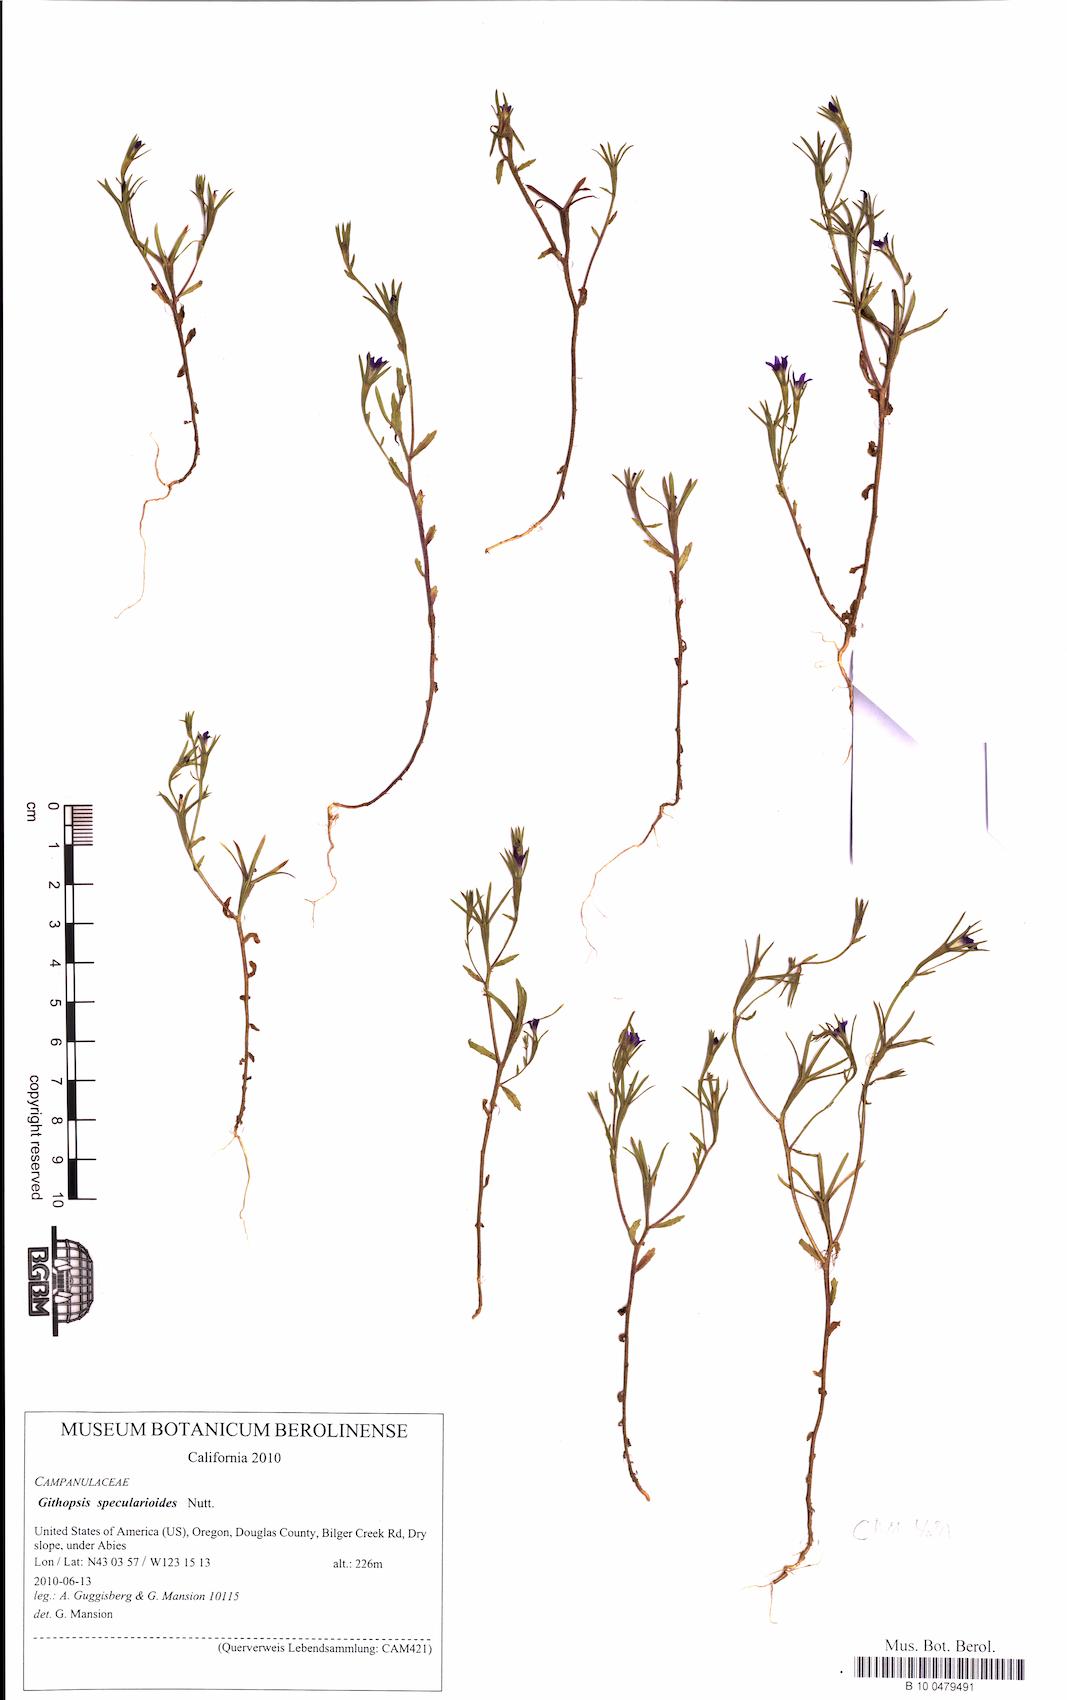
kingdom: Plantae
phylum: Tracheophyta
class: Magnoliopsida
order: Asterales
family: Campanulaceae
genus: Githopsis
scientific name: Githopsis specularioides
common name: Common bluecup
